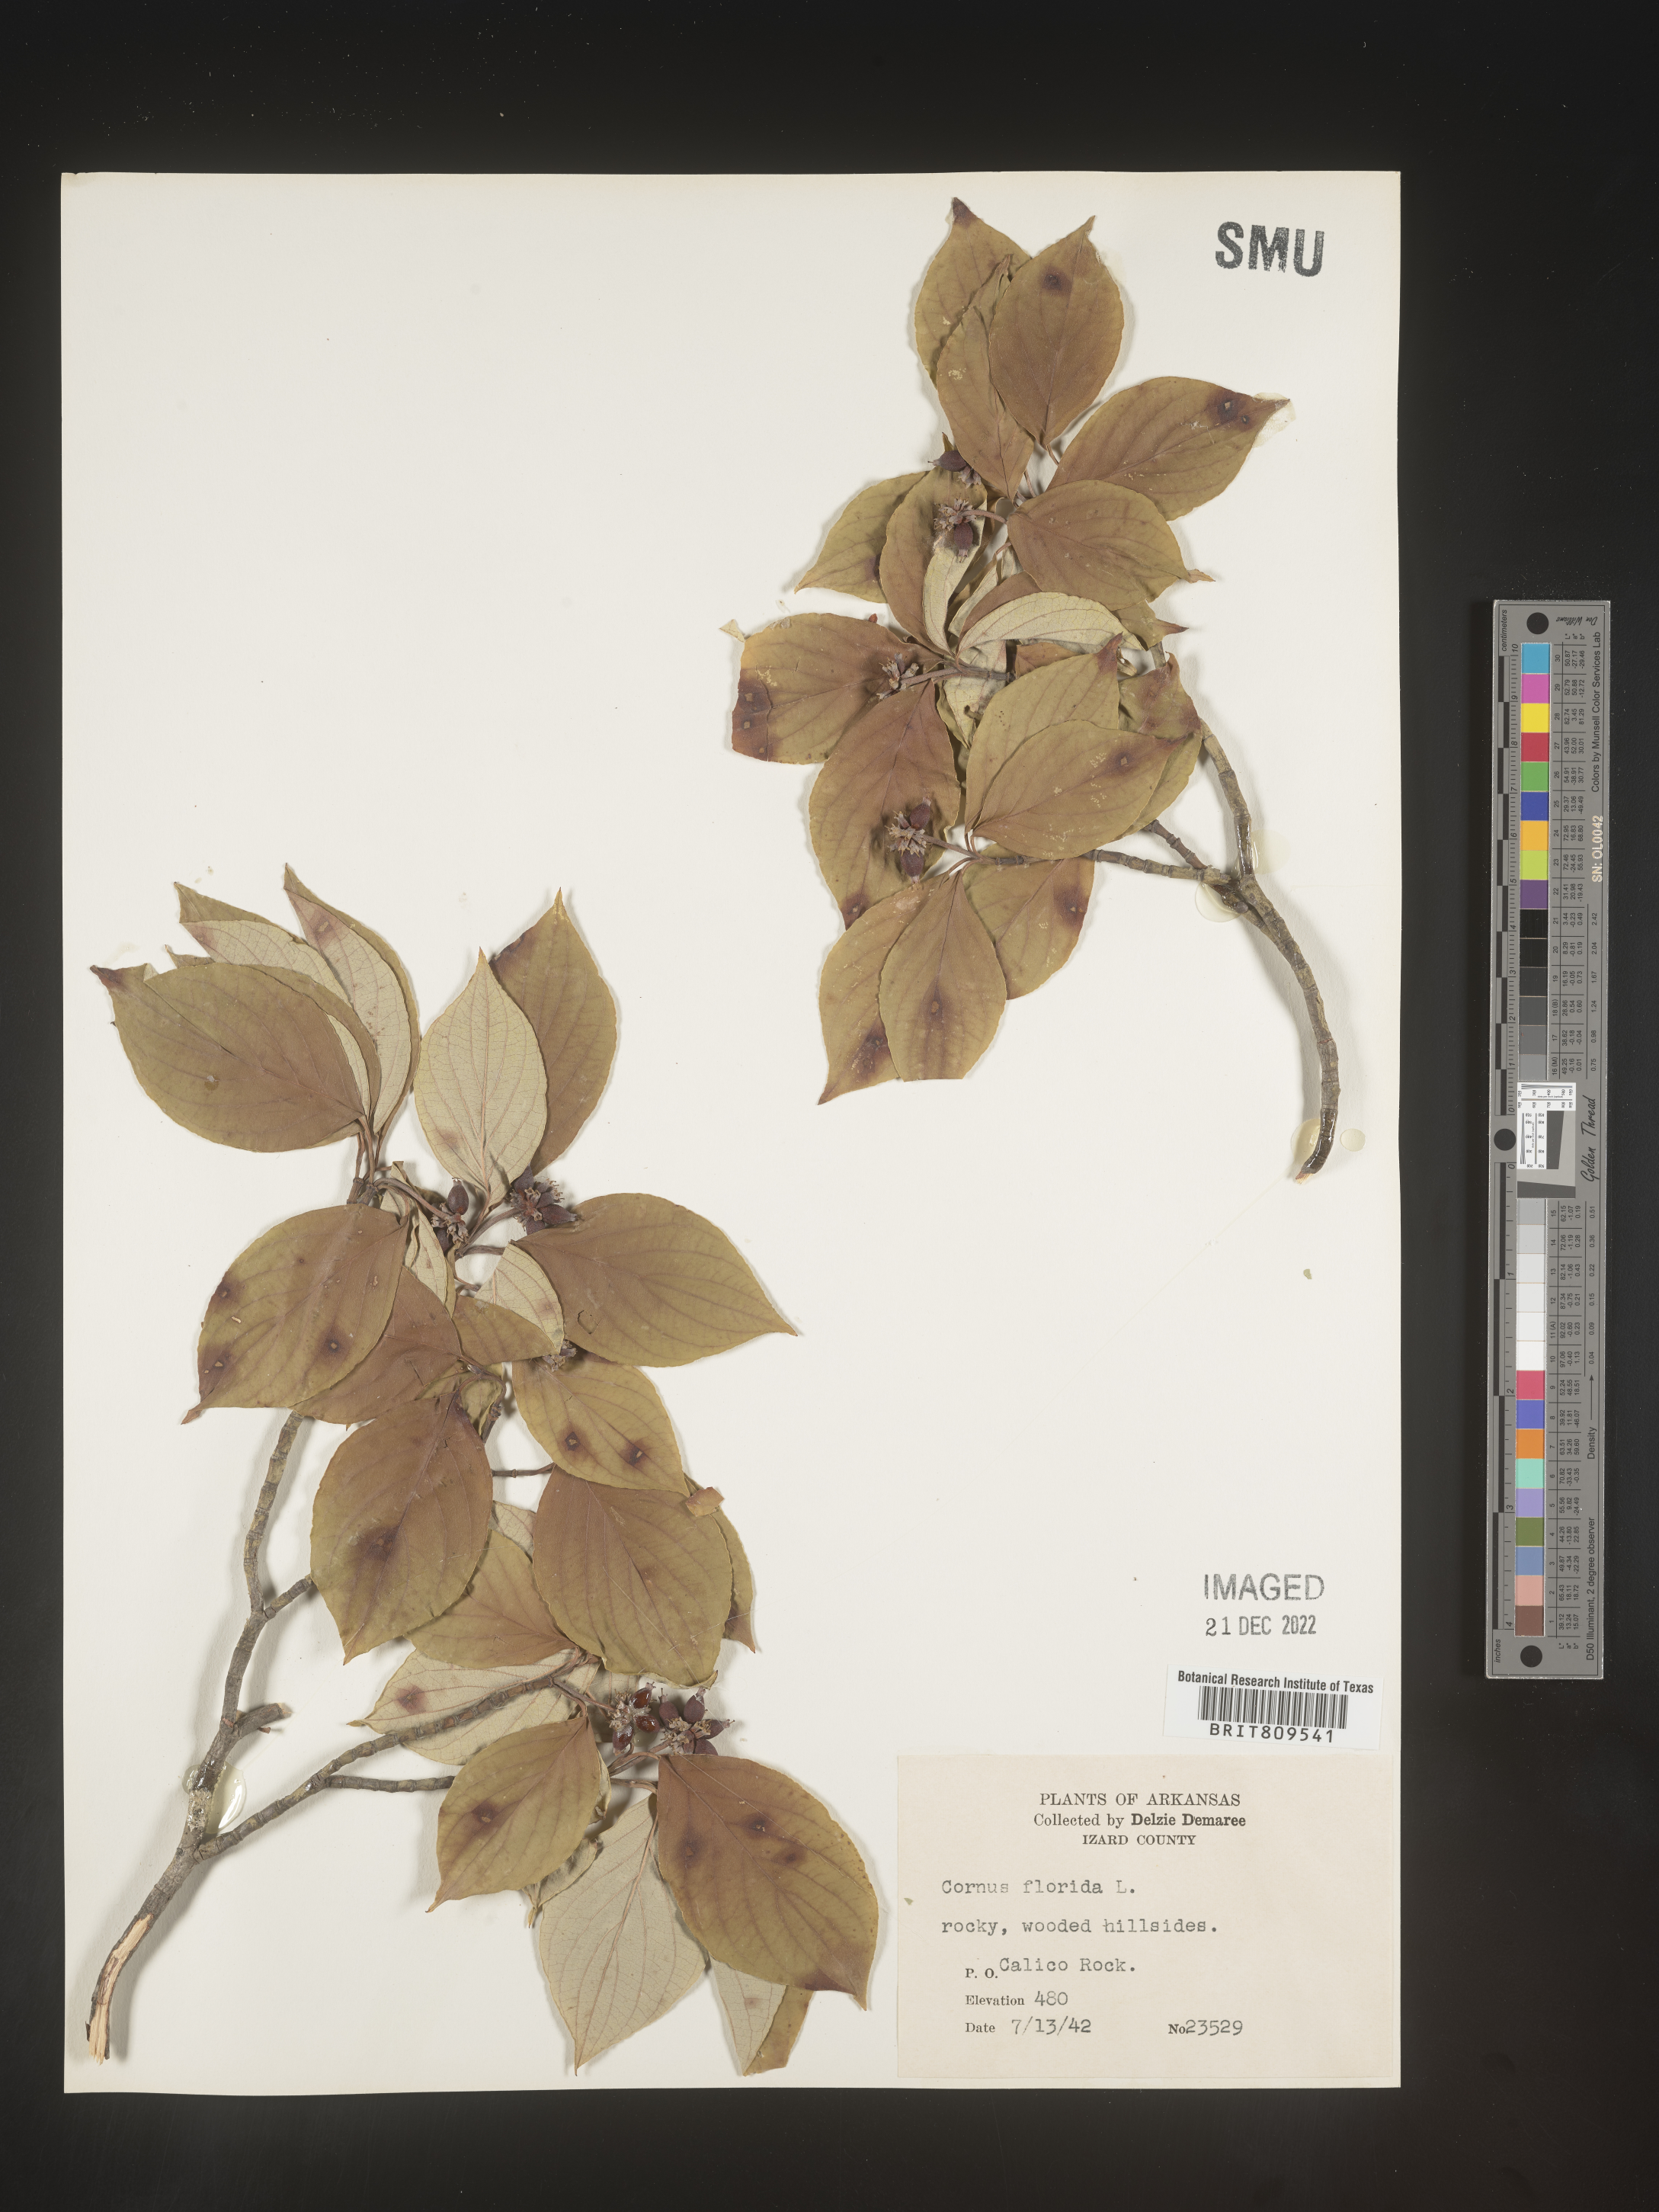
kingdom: Plantae
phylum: Tracheophyta
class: Magnoliopsida
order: Cornales
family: Cornaceae
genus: Cornus
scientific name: Cornus florida
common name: Flowering dogwood
